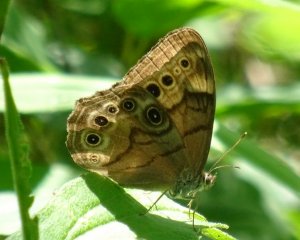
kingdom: Animalia
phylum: Arthropoda
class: Insecta
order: Lepidoptera
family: Nymphalidae
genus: Lethe
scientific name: Lethe anthedon
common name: Northern Pearly-Eye
